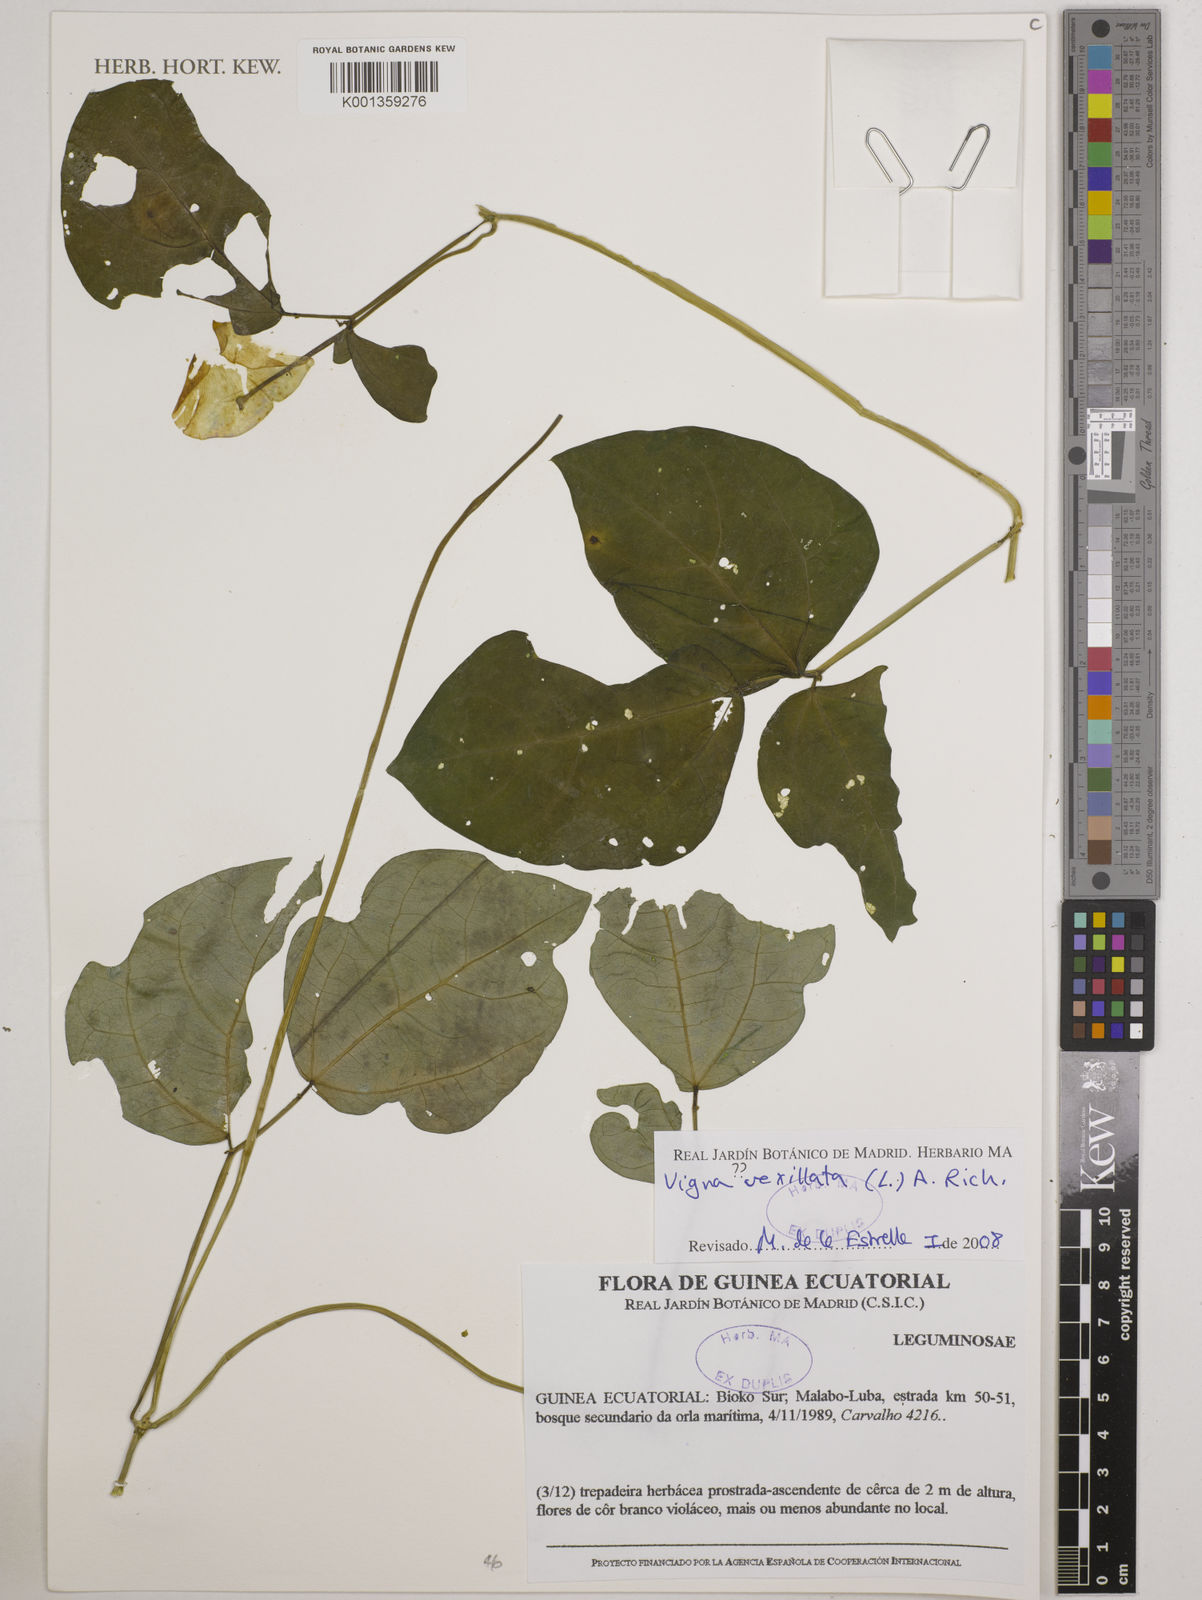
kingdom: Plantae
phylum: Tracheophyta
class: Magnoliopsida
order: Fabales
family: Fabaceae
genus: Vigna
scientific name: Vigna vexillata
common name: Zombi pea
